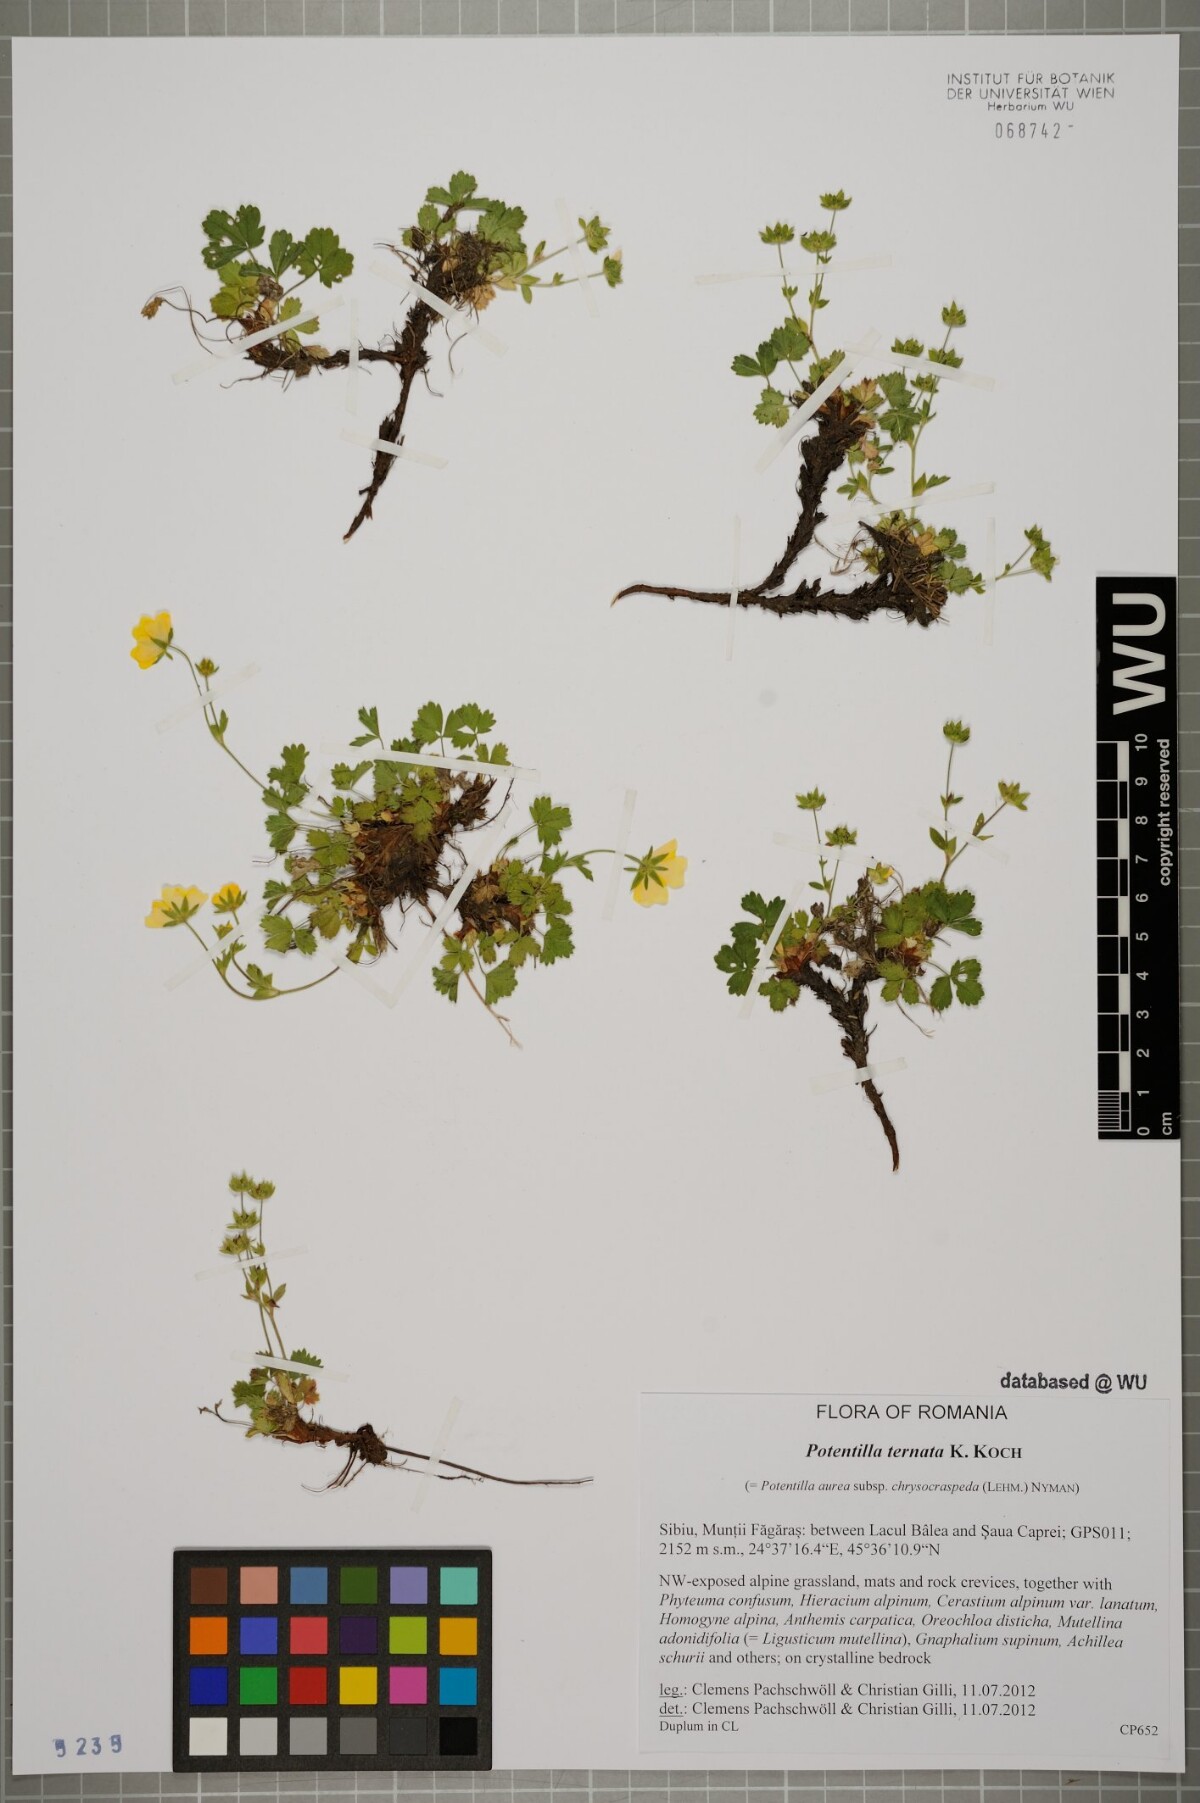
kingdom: Plantae
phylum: Tracheophyta
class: Magnoliopsida
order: Rosales
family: Rosaceae
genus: Potentilla
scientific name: Potentilla aurea
